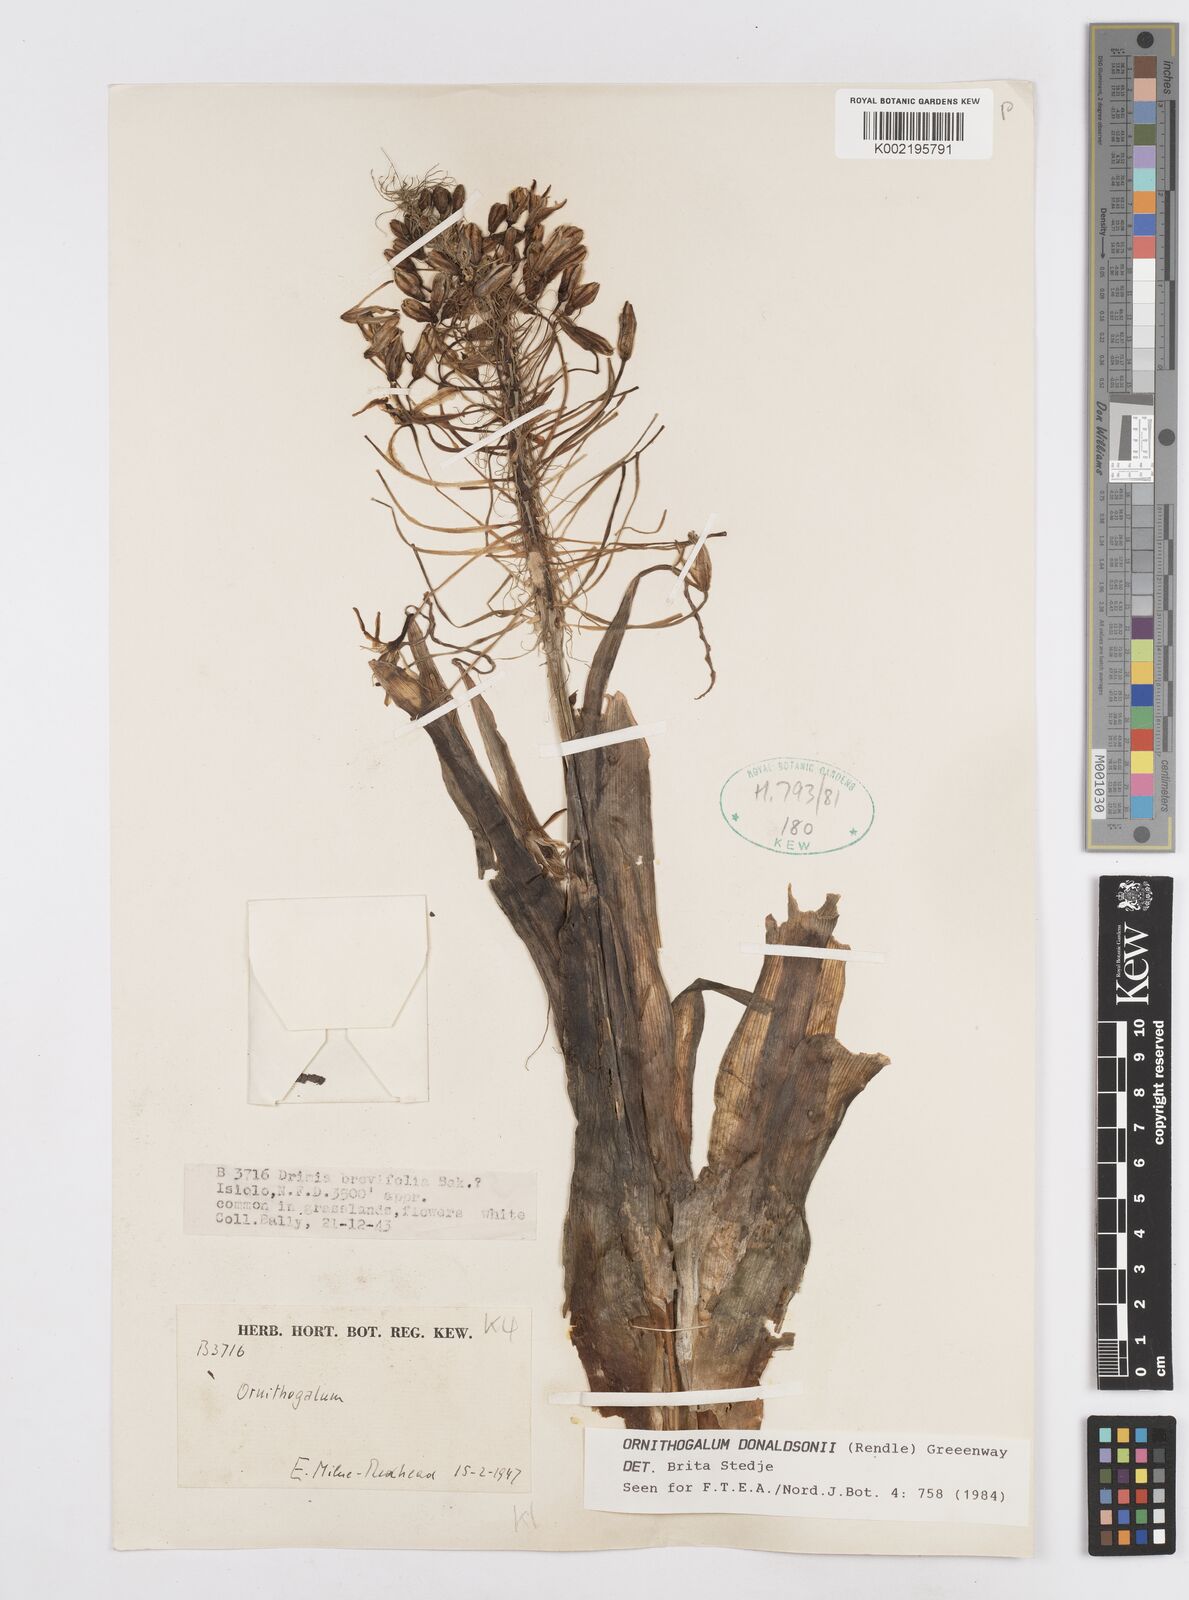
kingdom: Plantae
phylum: Tracheophyta
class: Liliopsida
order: Asparagales
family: Asparagaceae
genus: Albuca
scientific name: Albuca donaldsonii
